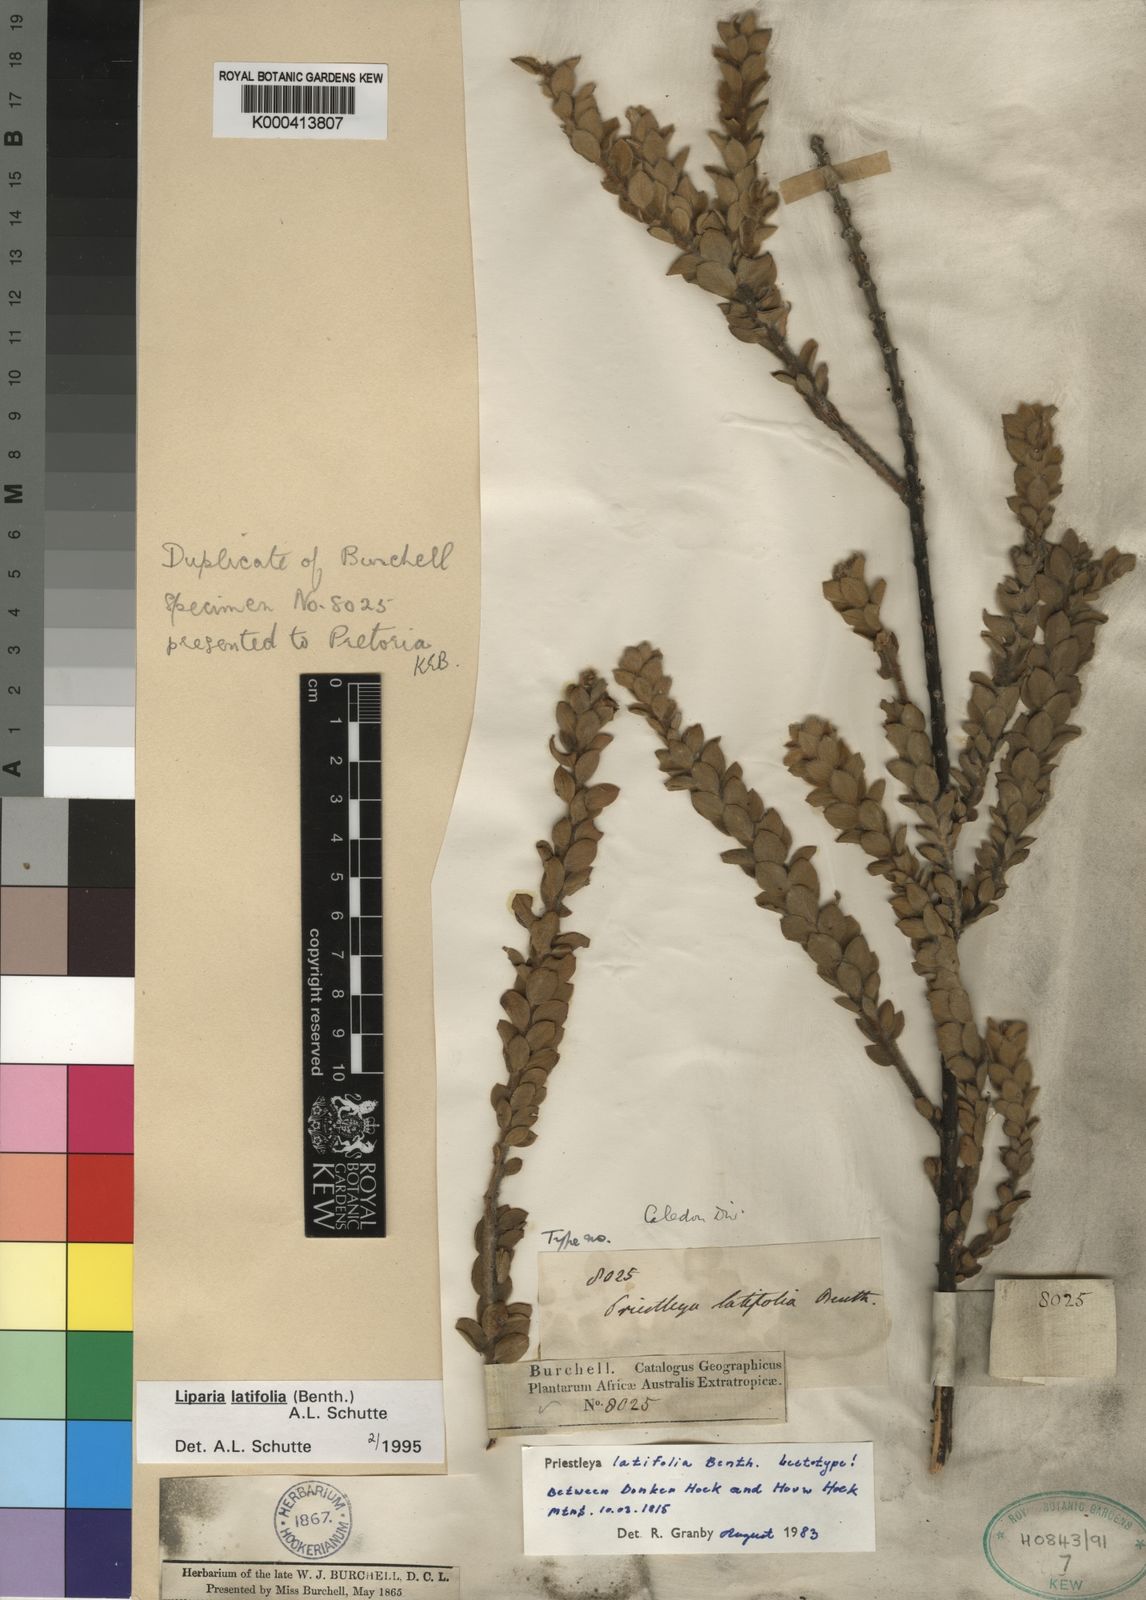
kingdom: Plantae
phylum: Tracheophyta
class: Magnoliopsida
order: Fabales
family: Fabaceae
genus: Liparia
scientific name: Liparia latifolia
